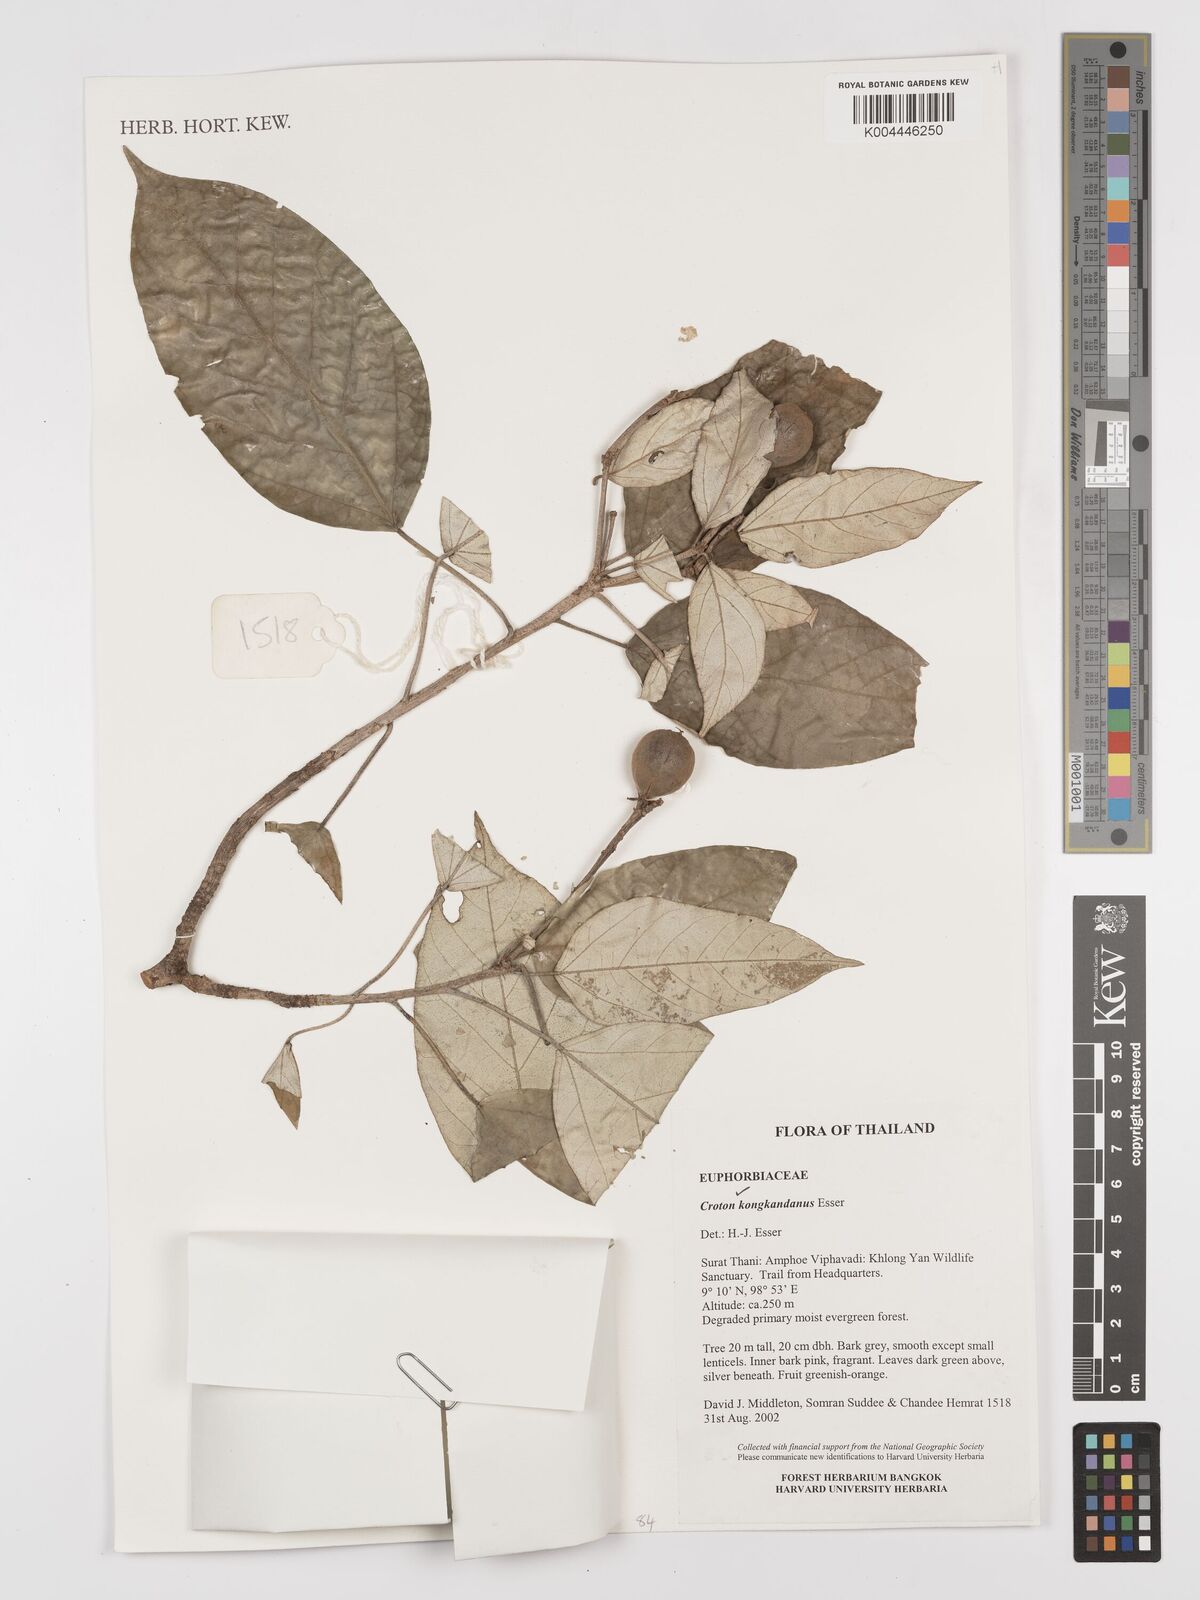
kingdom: Plantae
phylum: Tracheophyta
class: Magnoliopsida
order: Malpighiales
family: Euphorbiaceae
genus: Croton
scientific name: Croton kongkandanus
